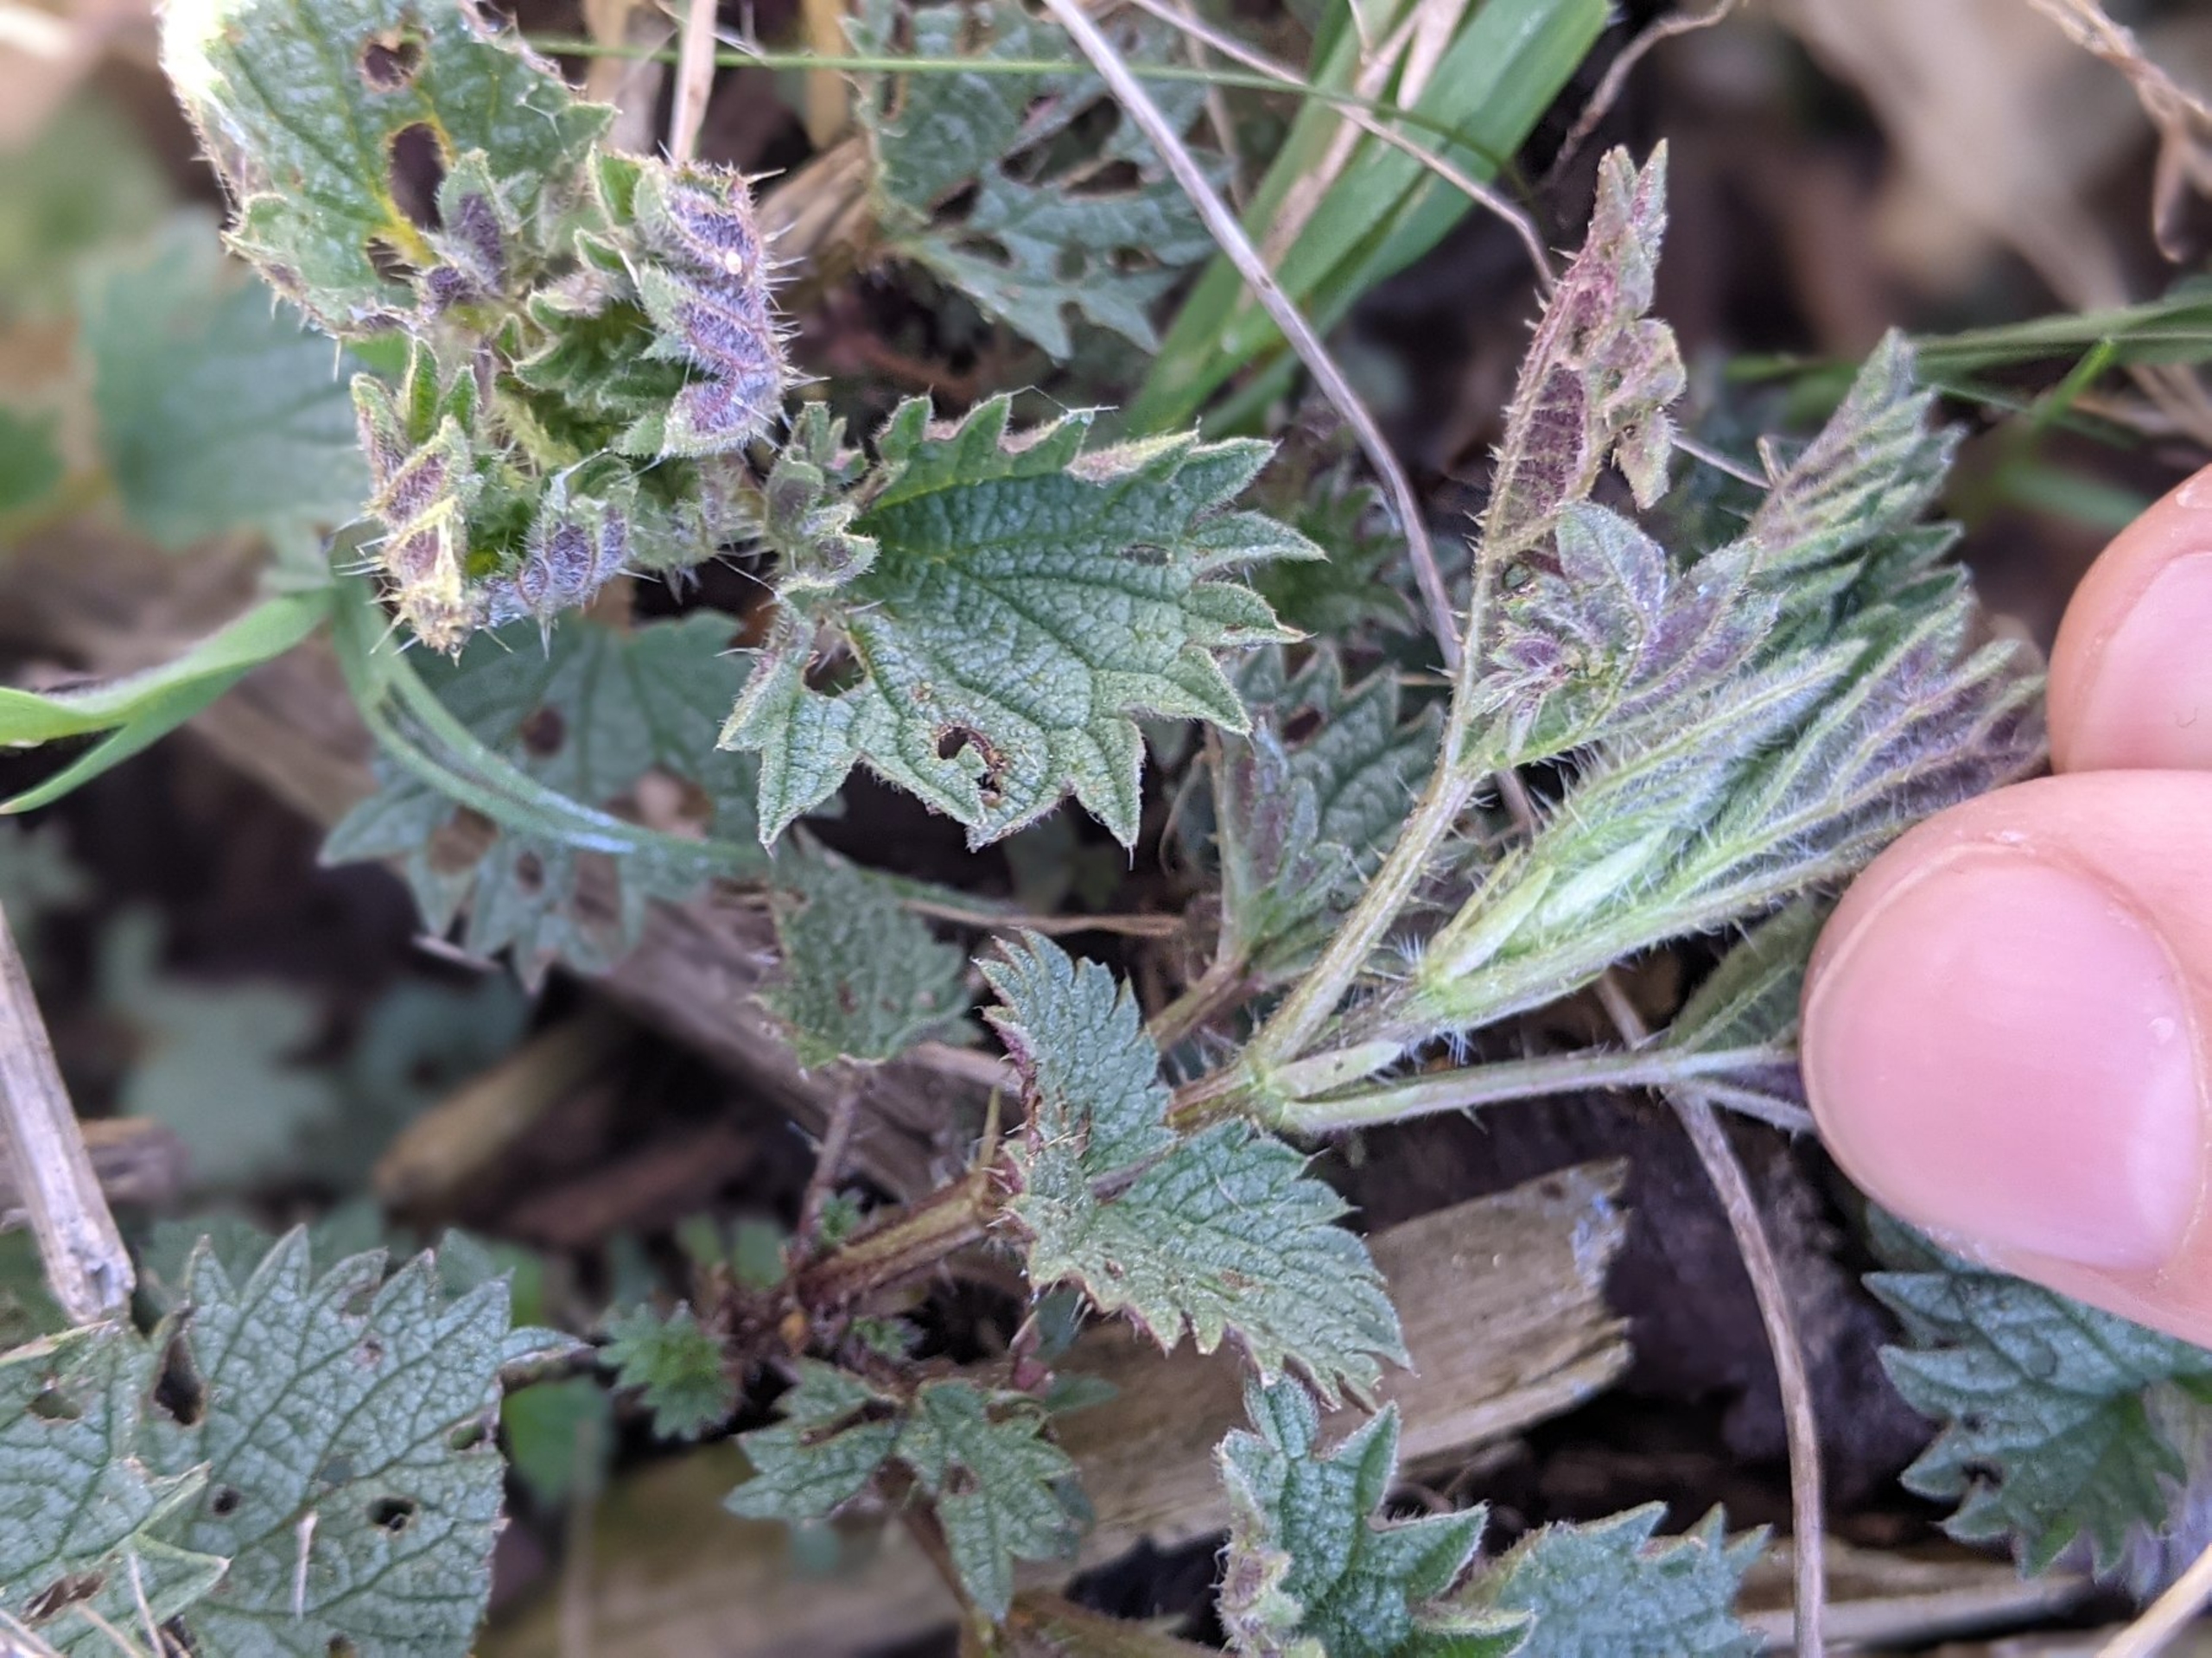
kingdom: Plantae
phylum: Tracheophyta
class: Magnoliopsida
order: Rosales
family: Urticaceae
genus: Urtica
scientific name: Urtica dioica
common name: Stor nælde
